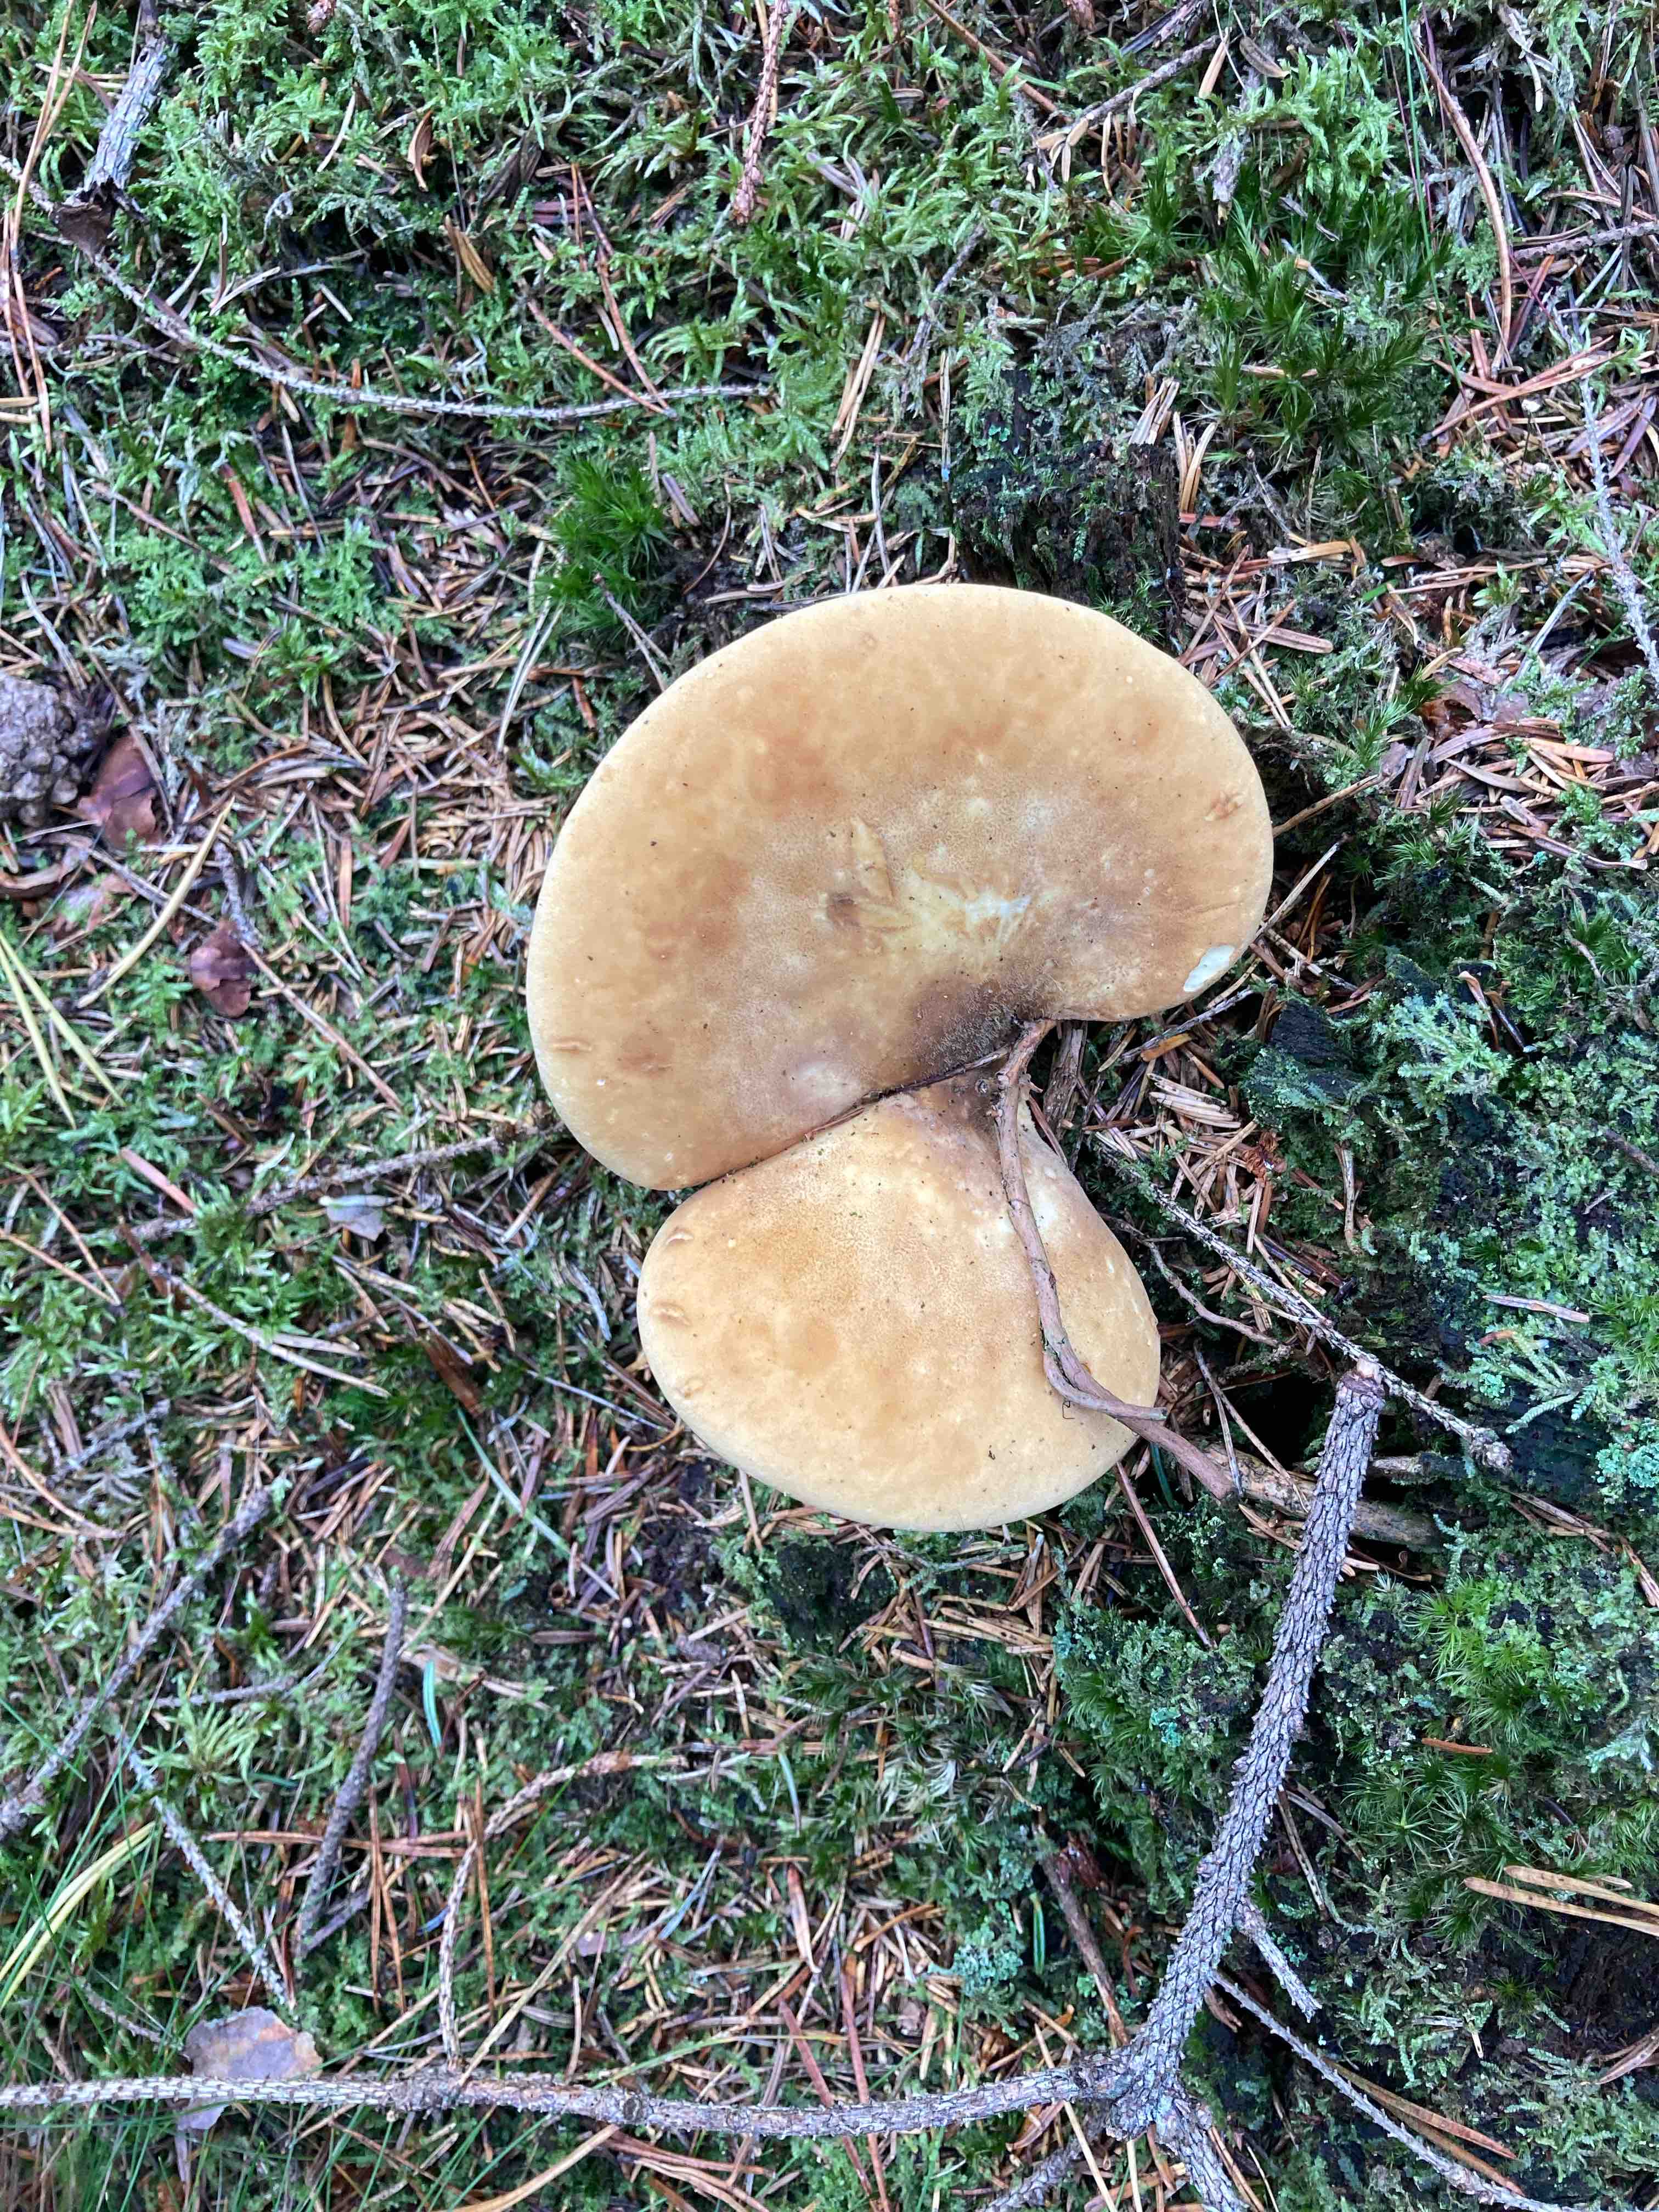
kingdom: Fungi
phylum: Basidiomycota
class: Agaricomycetes
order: Boletales
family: Tapinellaceae
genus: Tapinella
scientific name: Tapinella atrotomentosa
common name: sortfiltet viftesvamp
